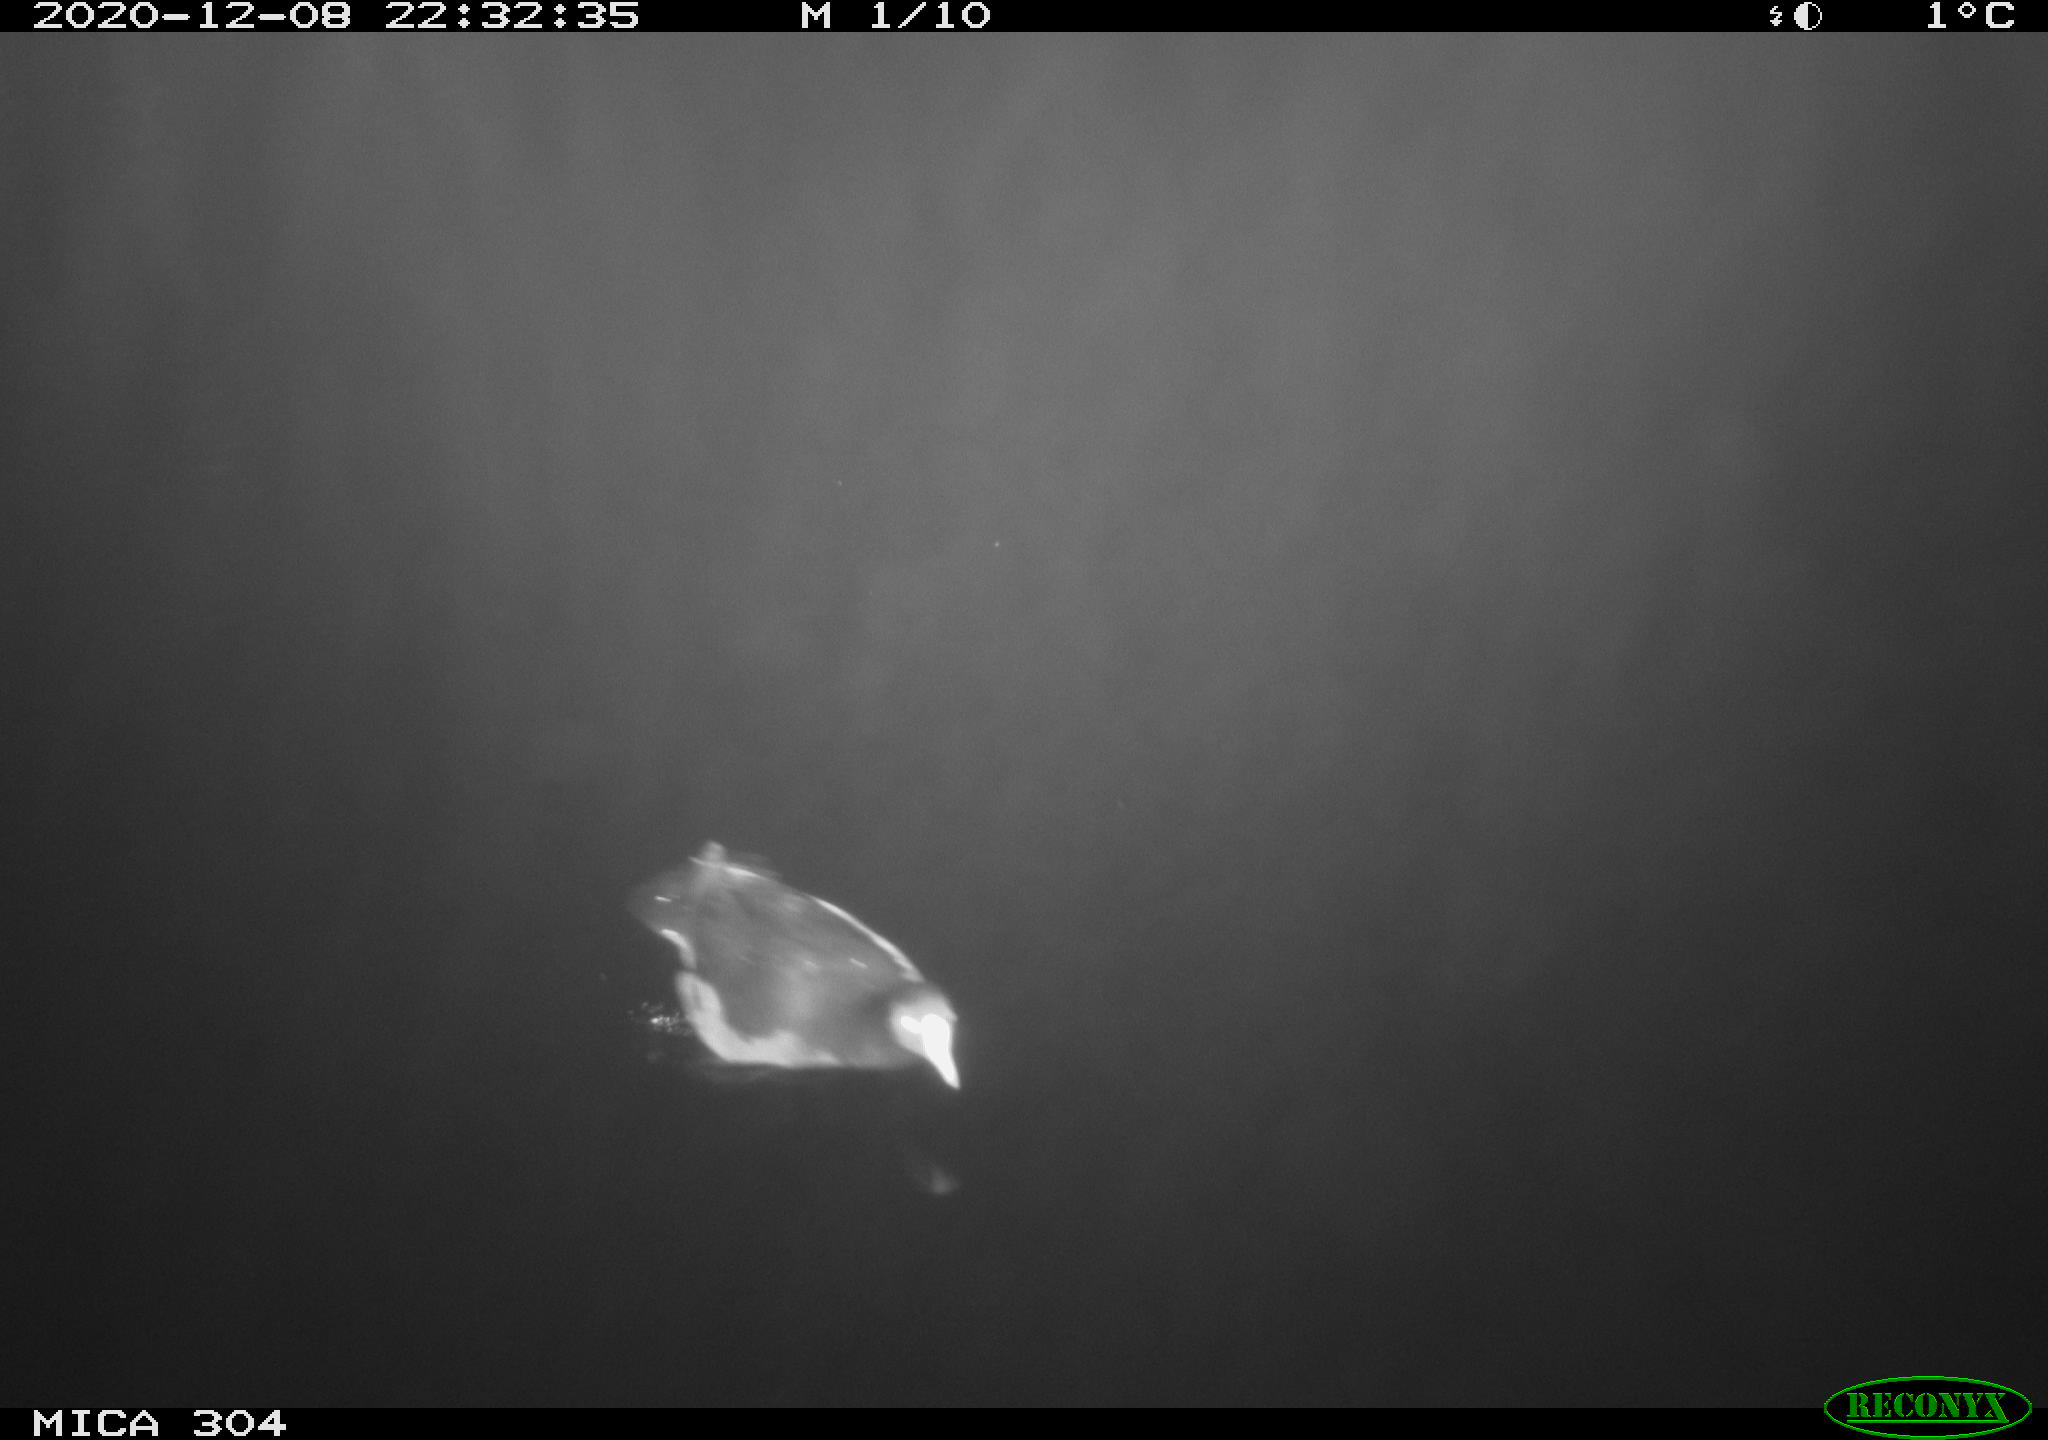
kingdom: Animalia
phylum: Chordata
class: Aves
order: Gruiformes
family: Rallidae
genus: Fulica
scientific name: Fulica atra
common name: Eurasian coot
